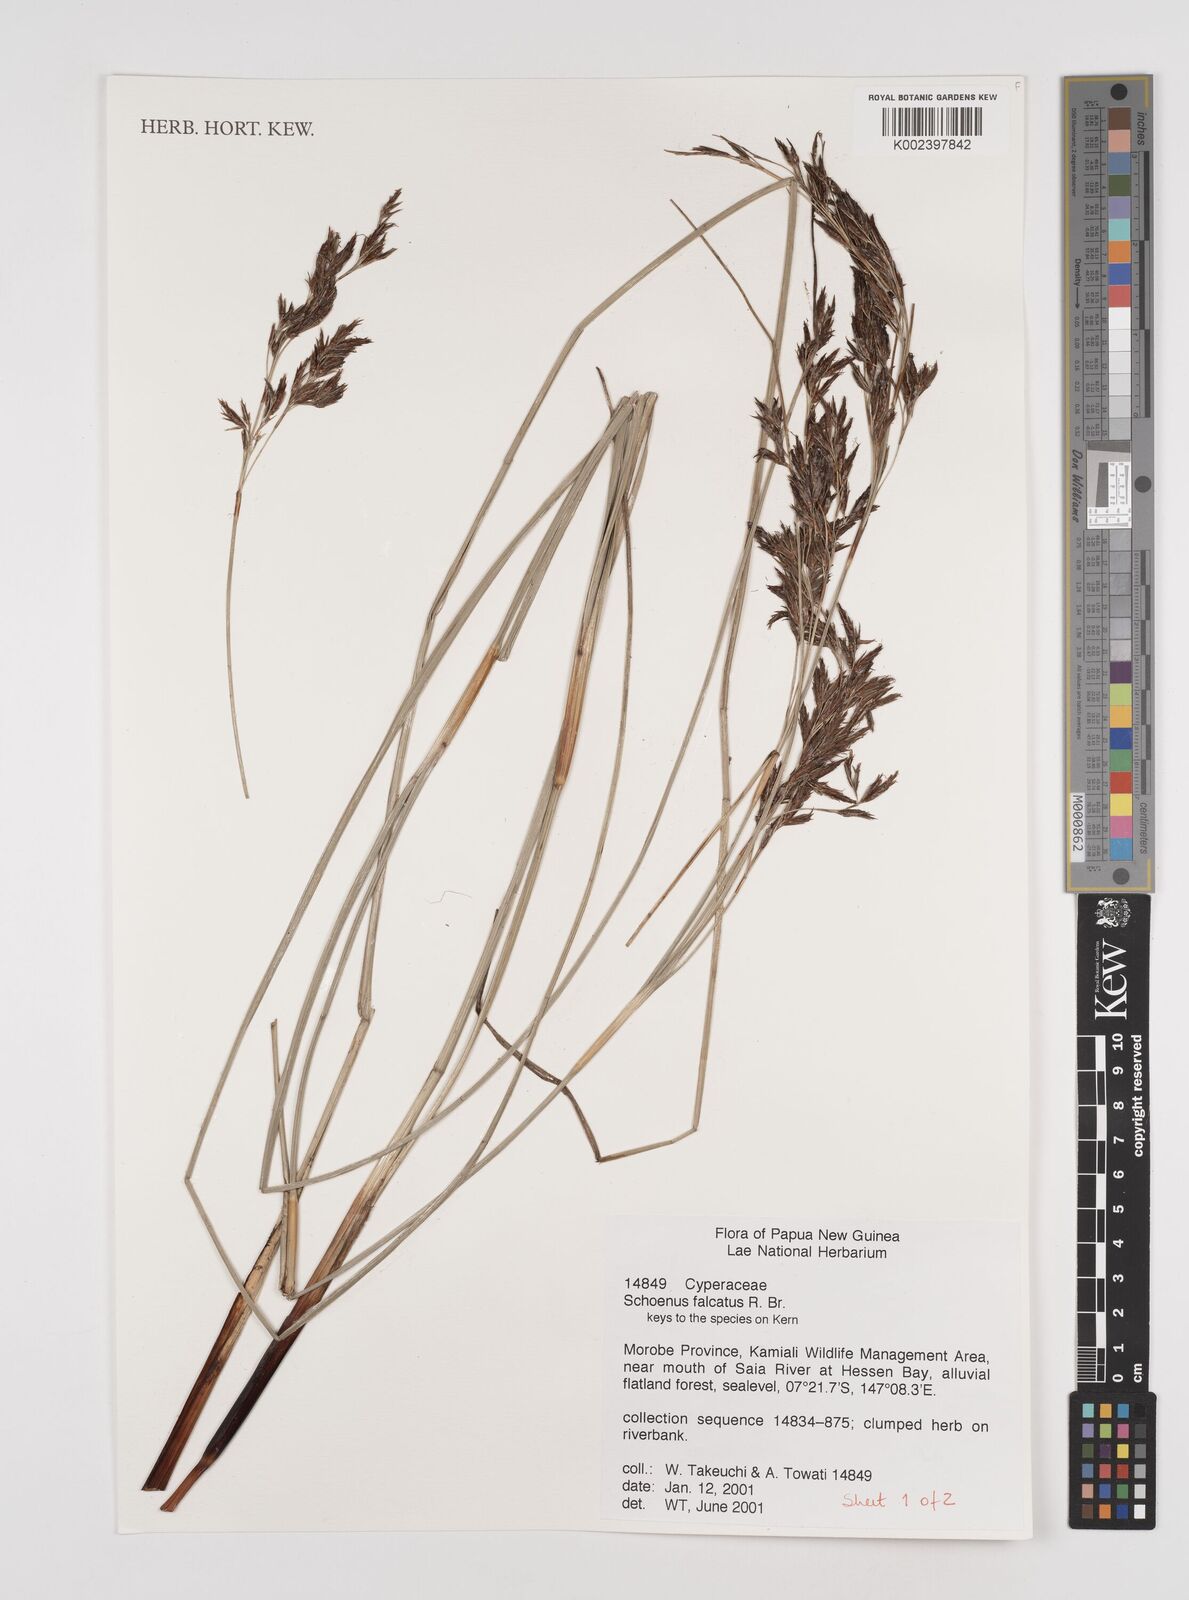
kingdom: Plantae
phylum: Tracheophyta
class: Liliopsida
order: Poales
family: Cyperaceae
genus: Schoenus
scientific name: Schoenus falcatus
